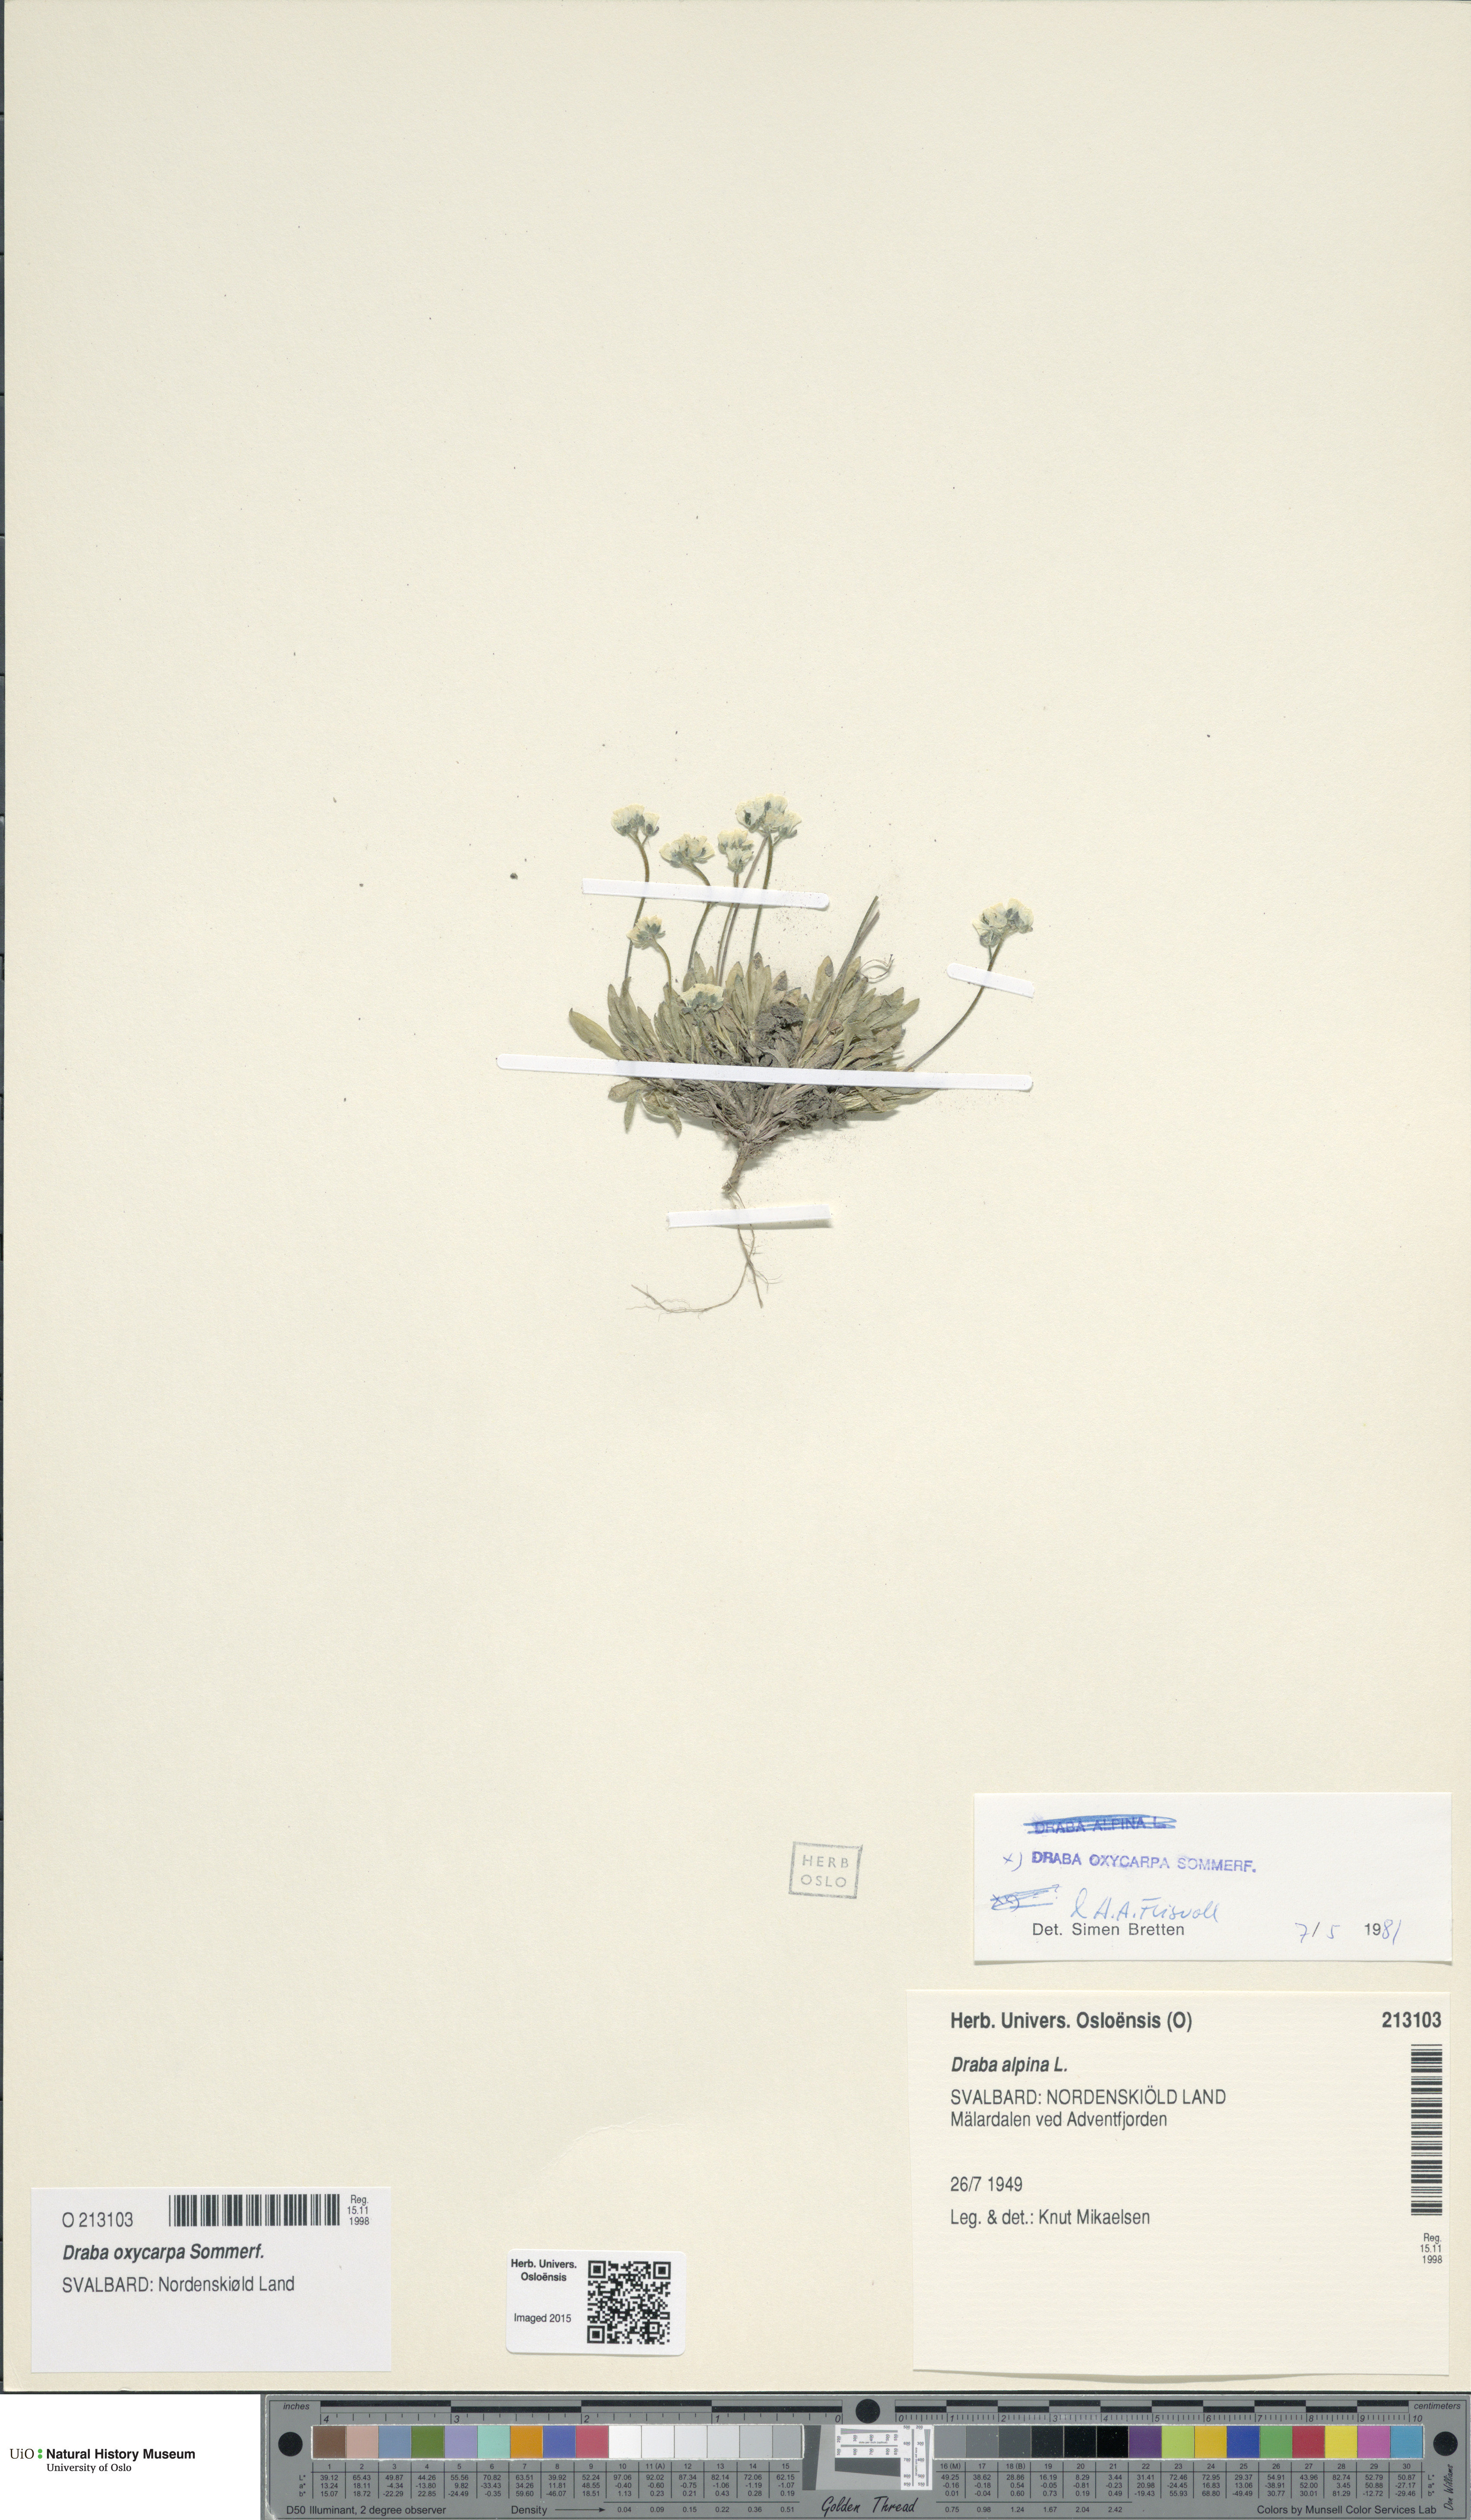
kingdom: Plantae
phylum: Tracheophyta
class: Magnoliopsida
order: Brassicales
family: Brassicaceae
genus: Draba
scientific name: Draba oxycarpa
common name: Sharp-fruited whitlow-grass
